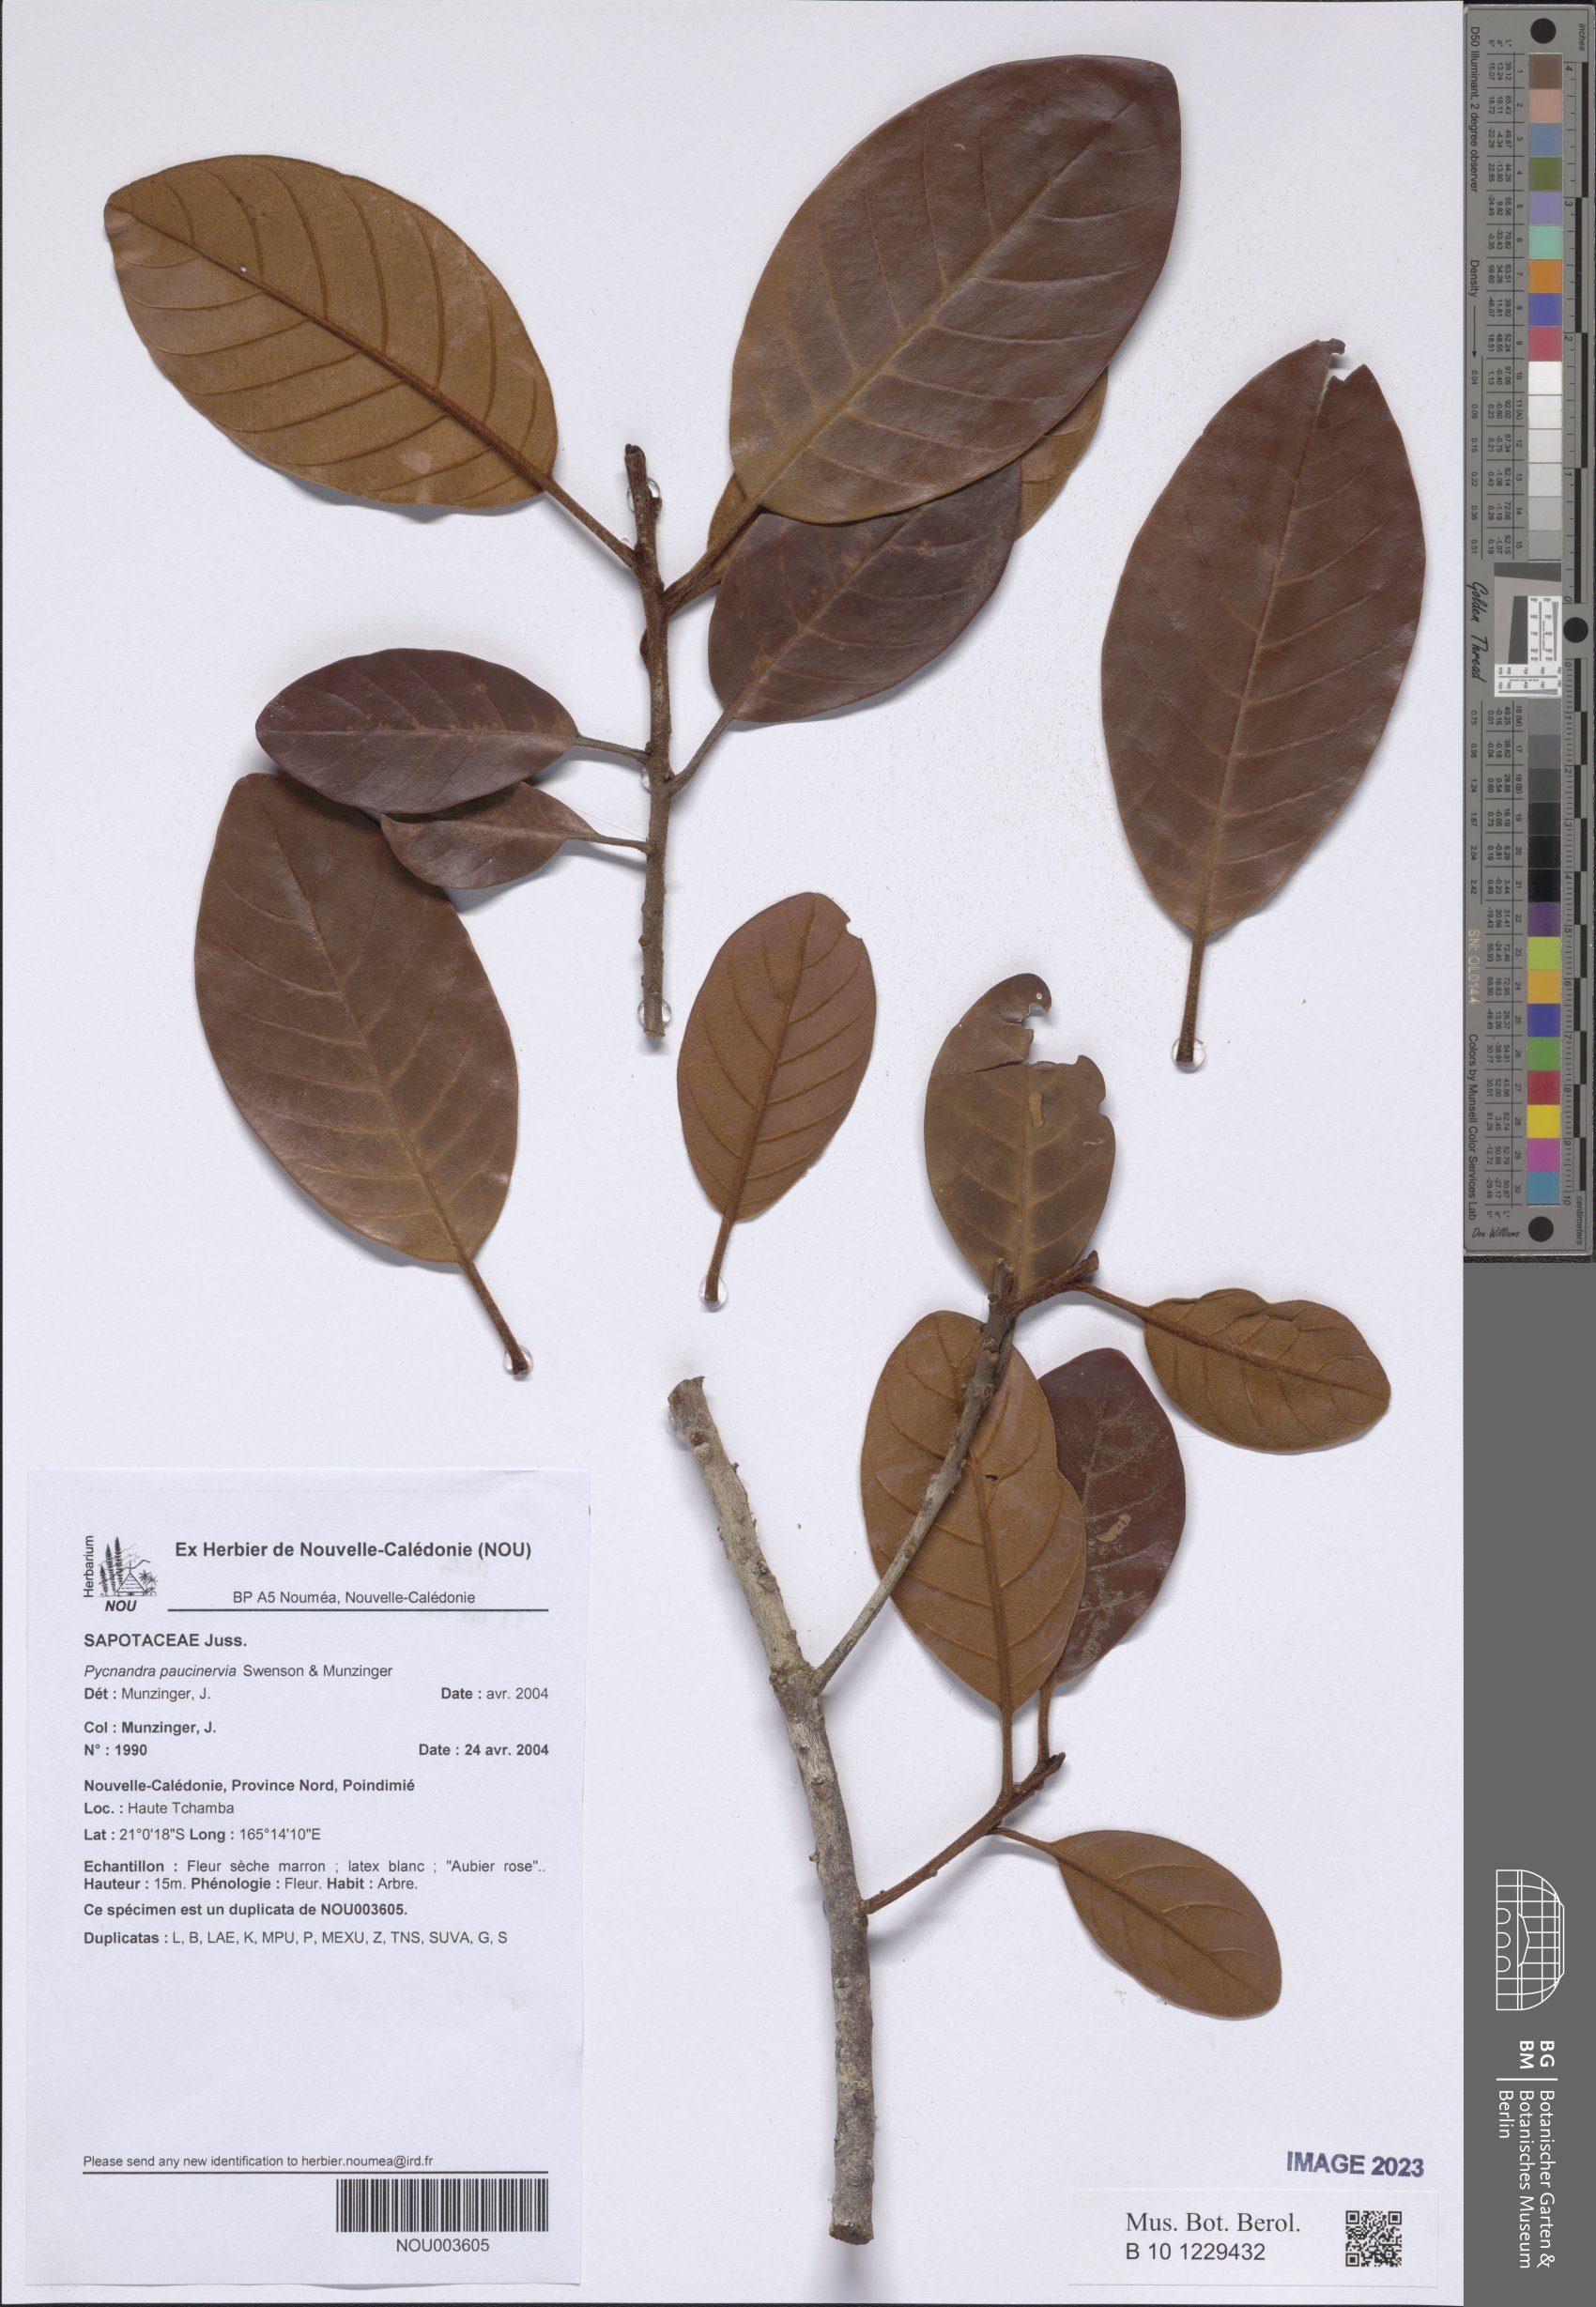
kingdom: Plantae
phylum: Tracheophyta
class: Magnoliopsida
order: Ericales
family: Sapotaceae
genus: Pycnandra
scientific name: Pycnandra paucinervia
